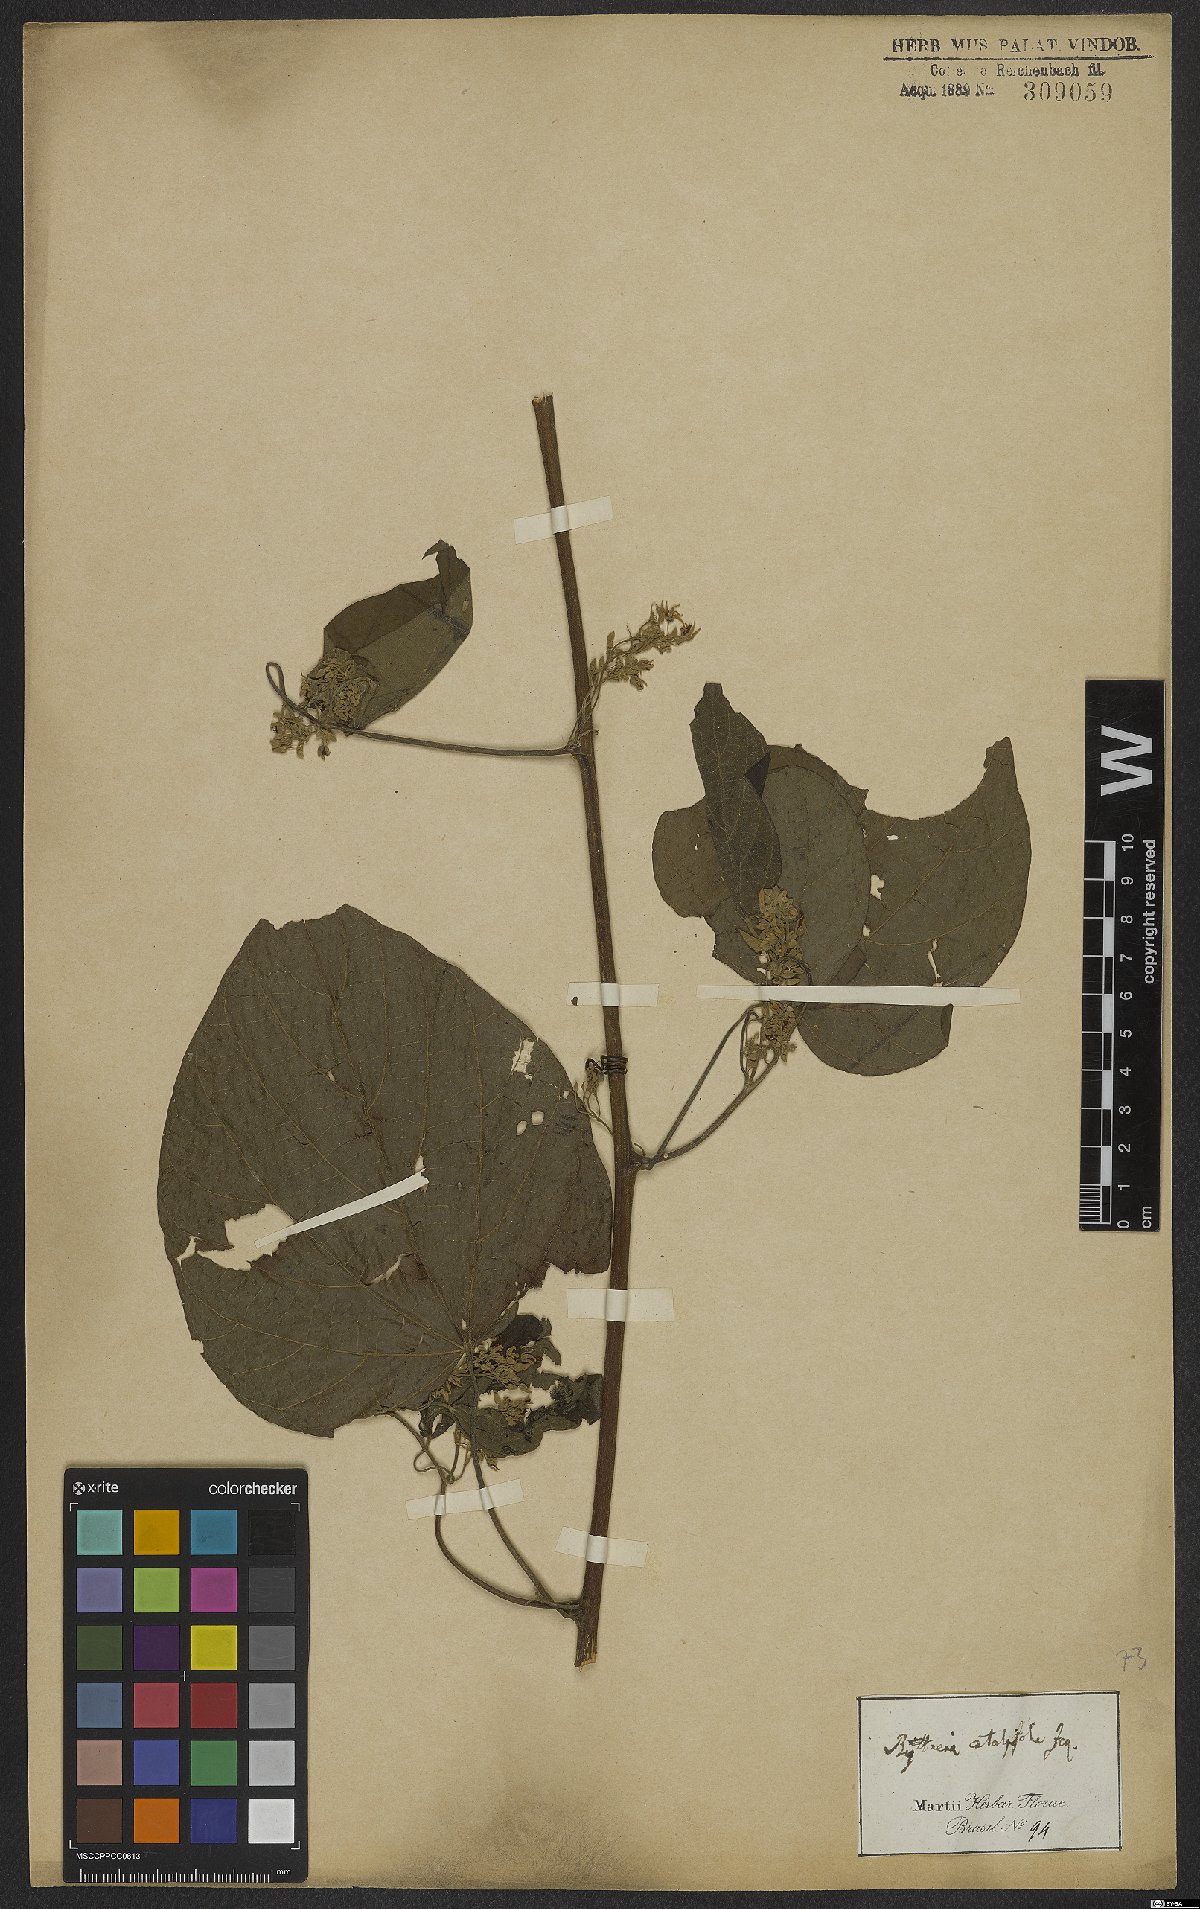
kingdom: Plantae
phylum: Tracheophyta
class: Magnoliopsida
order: Malvales
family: Malvaceae
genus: Byttneria
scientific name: Byttneria catalpifolia
